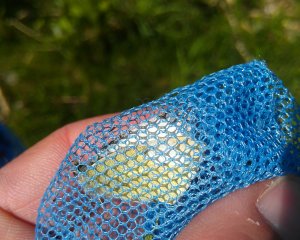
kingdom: Animalia
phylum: Arthropoda
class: Insecta
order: Lepidoptera
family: Pieridae
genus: Pieris
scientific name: Pieris rapae
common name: Cabbage White
